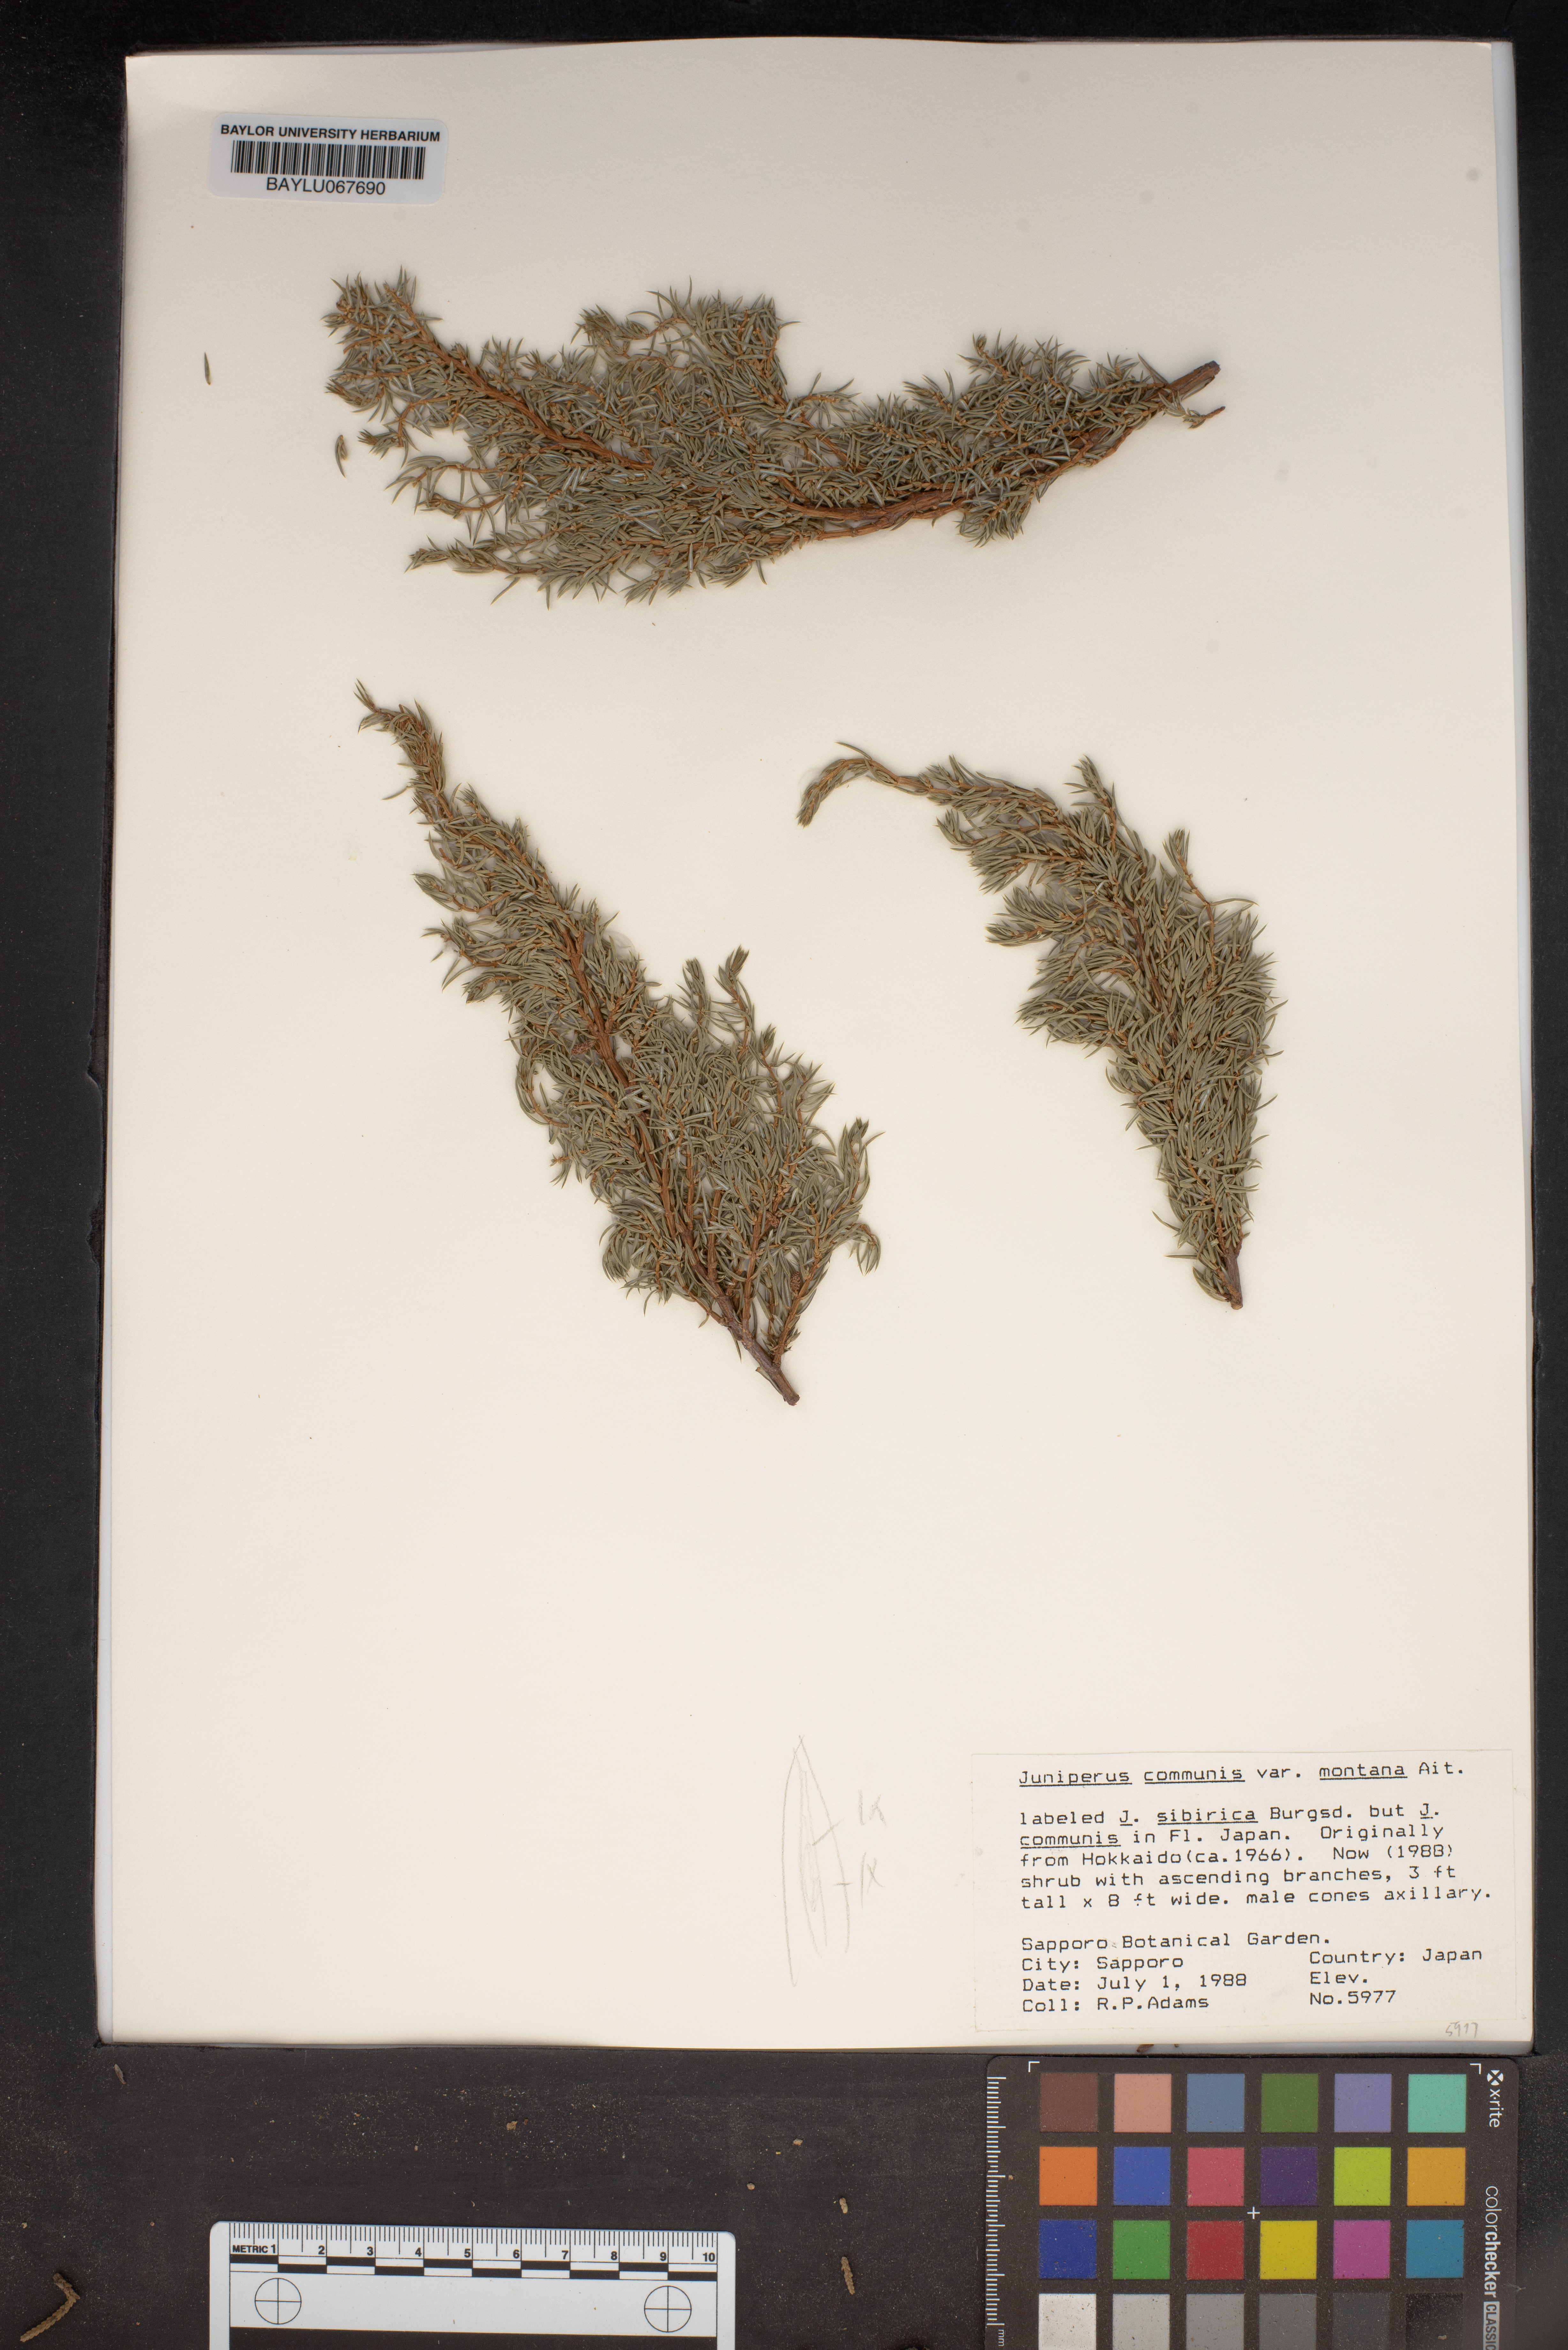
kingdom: Plantae
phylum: Tracheophyta
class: Pinopsida
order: Pinales
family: Cupressaceae
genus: Juniperus
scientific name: Juniperus communis
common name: Common juniper
